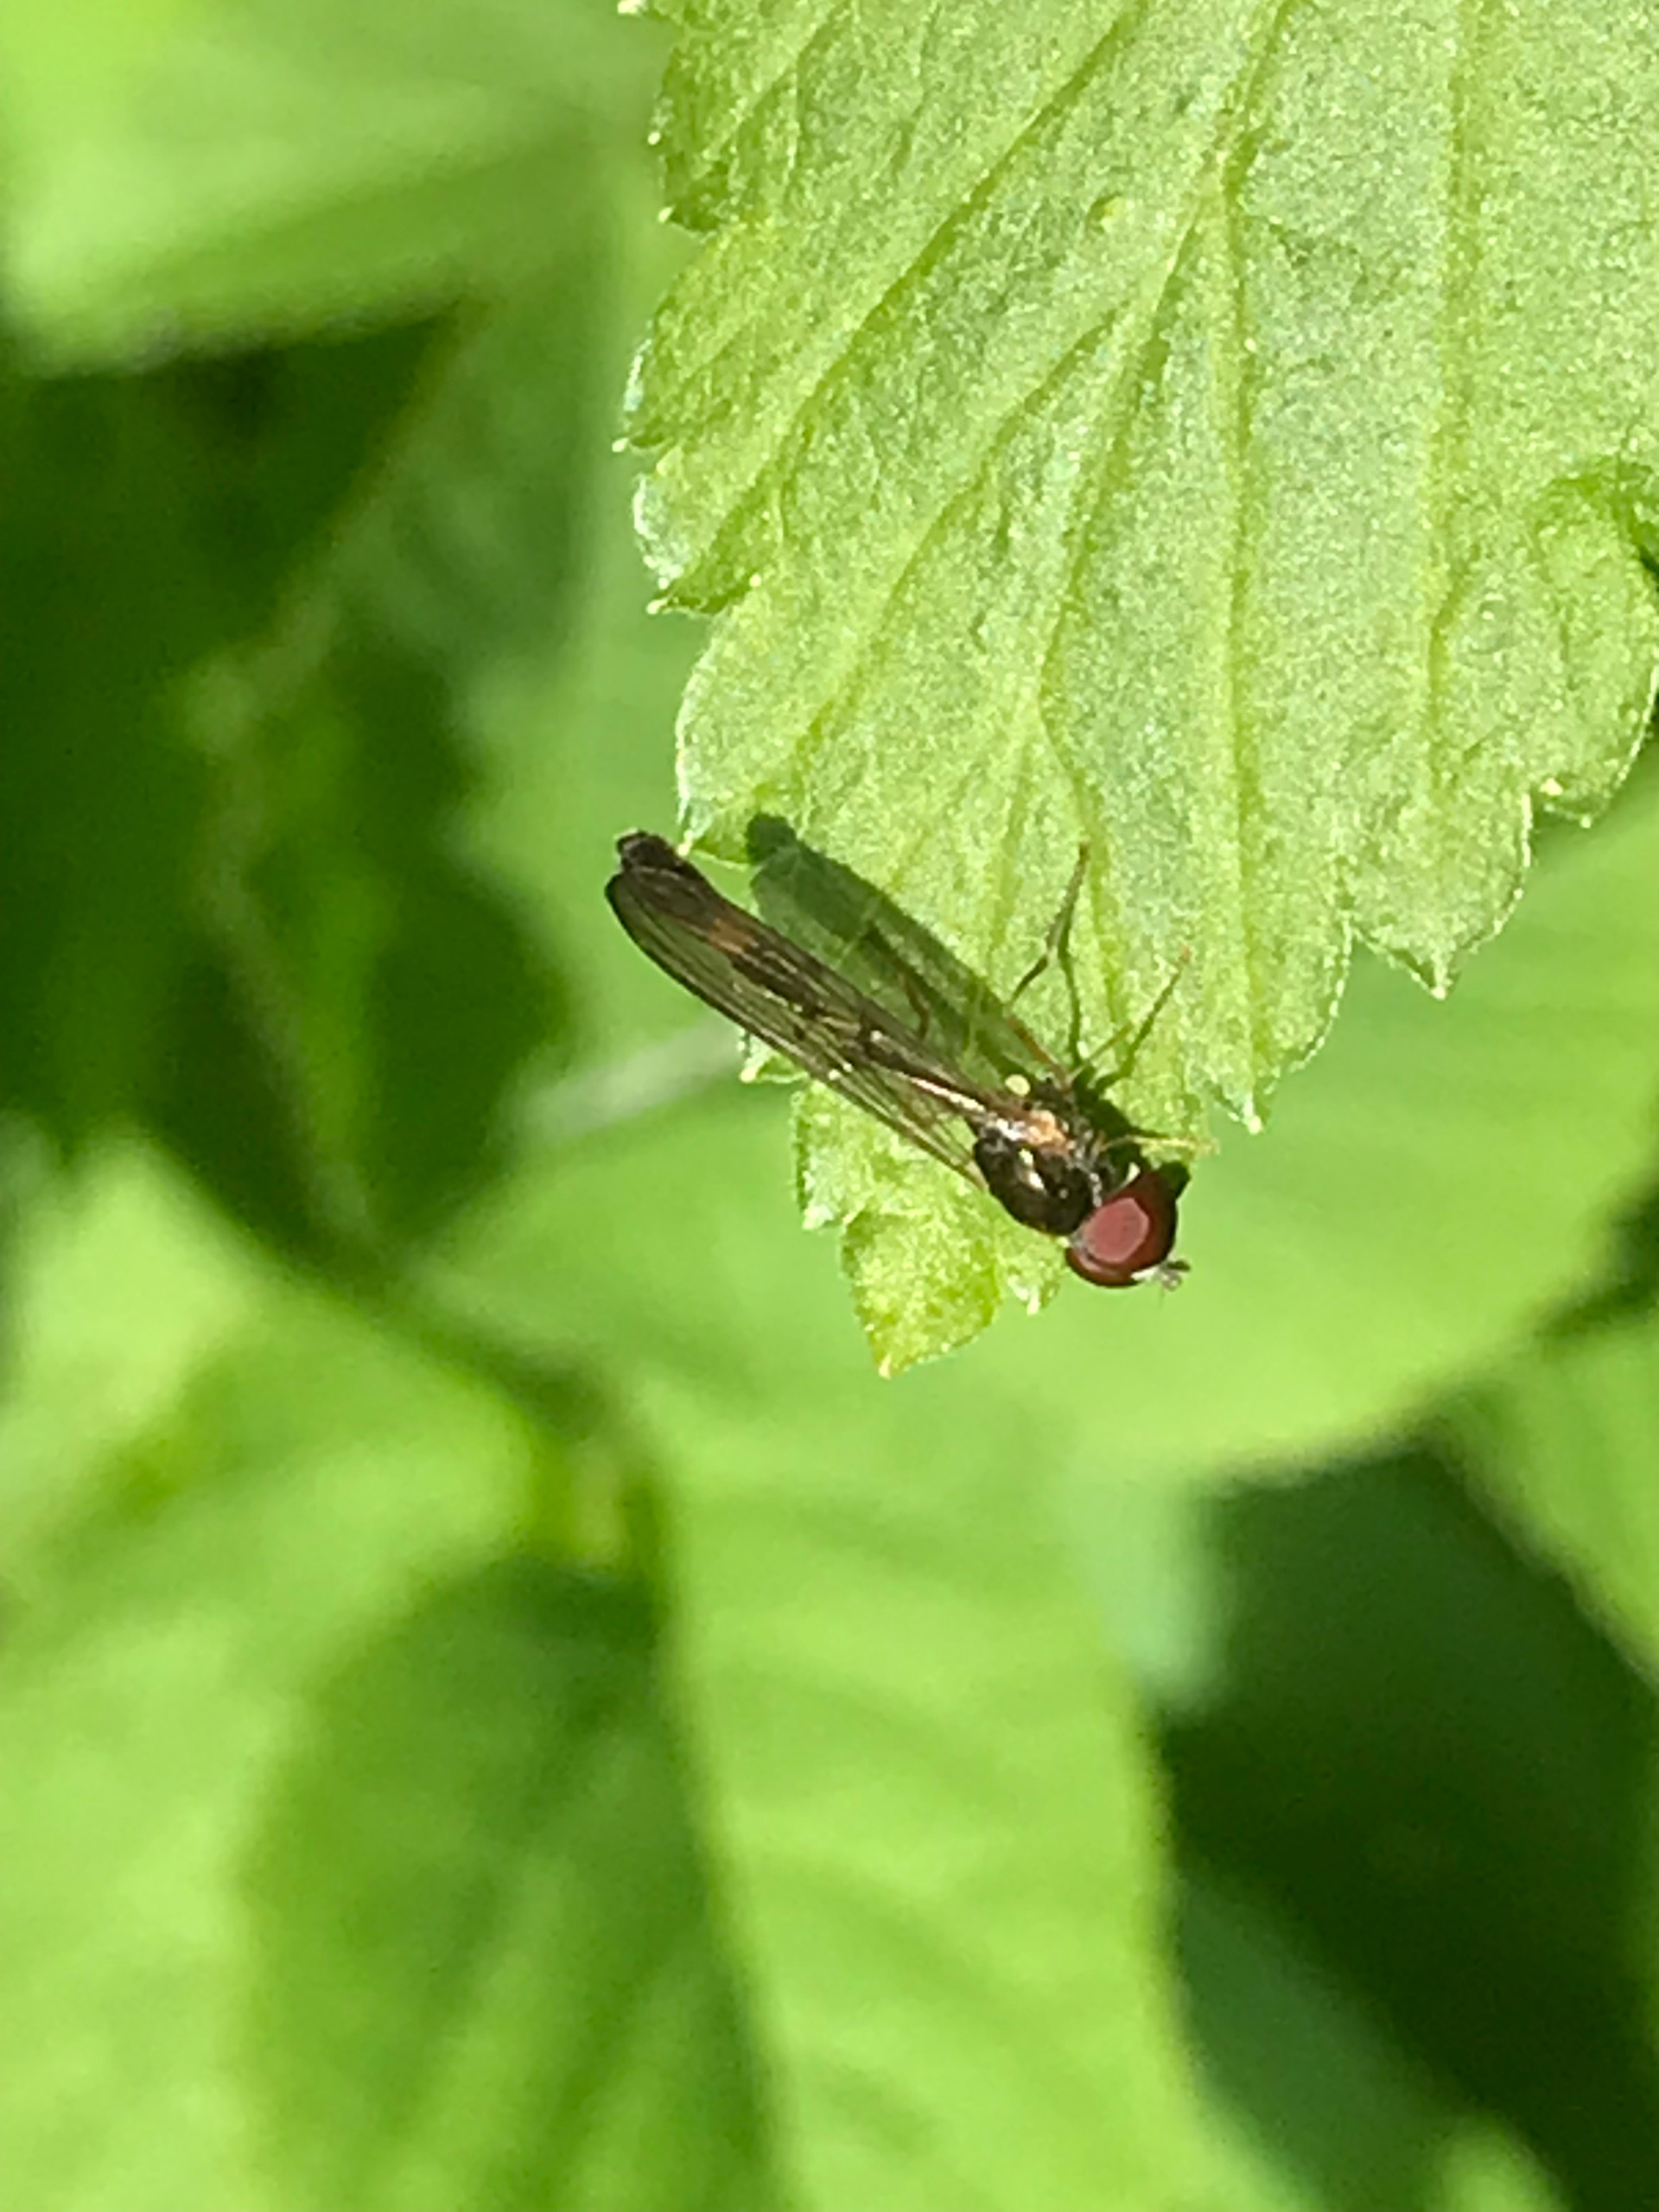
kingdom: Animalia
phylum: Arthropoda
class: Insecta
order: Diptera
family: Syrphidae
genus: Baccha
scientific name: Baccha elongata
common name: Mat spydsvirreflue
